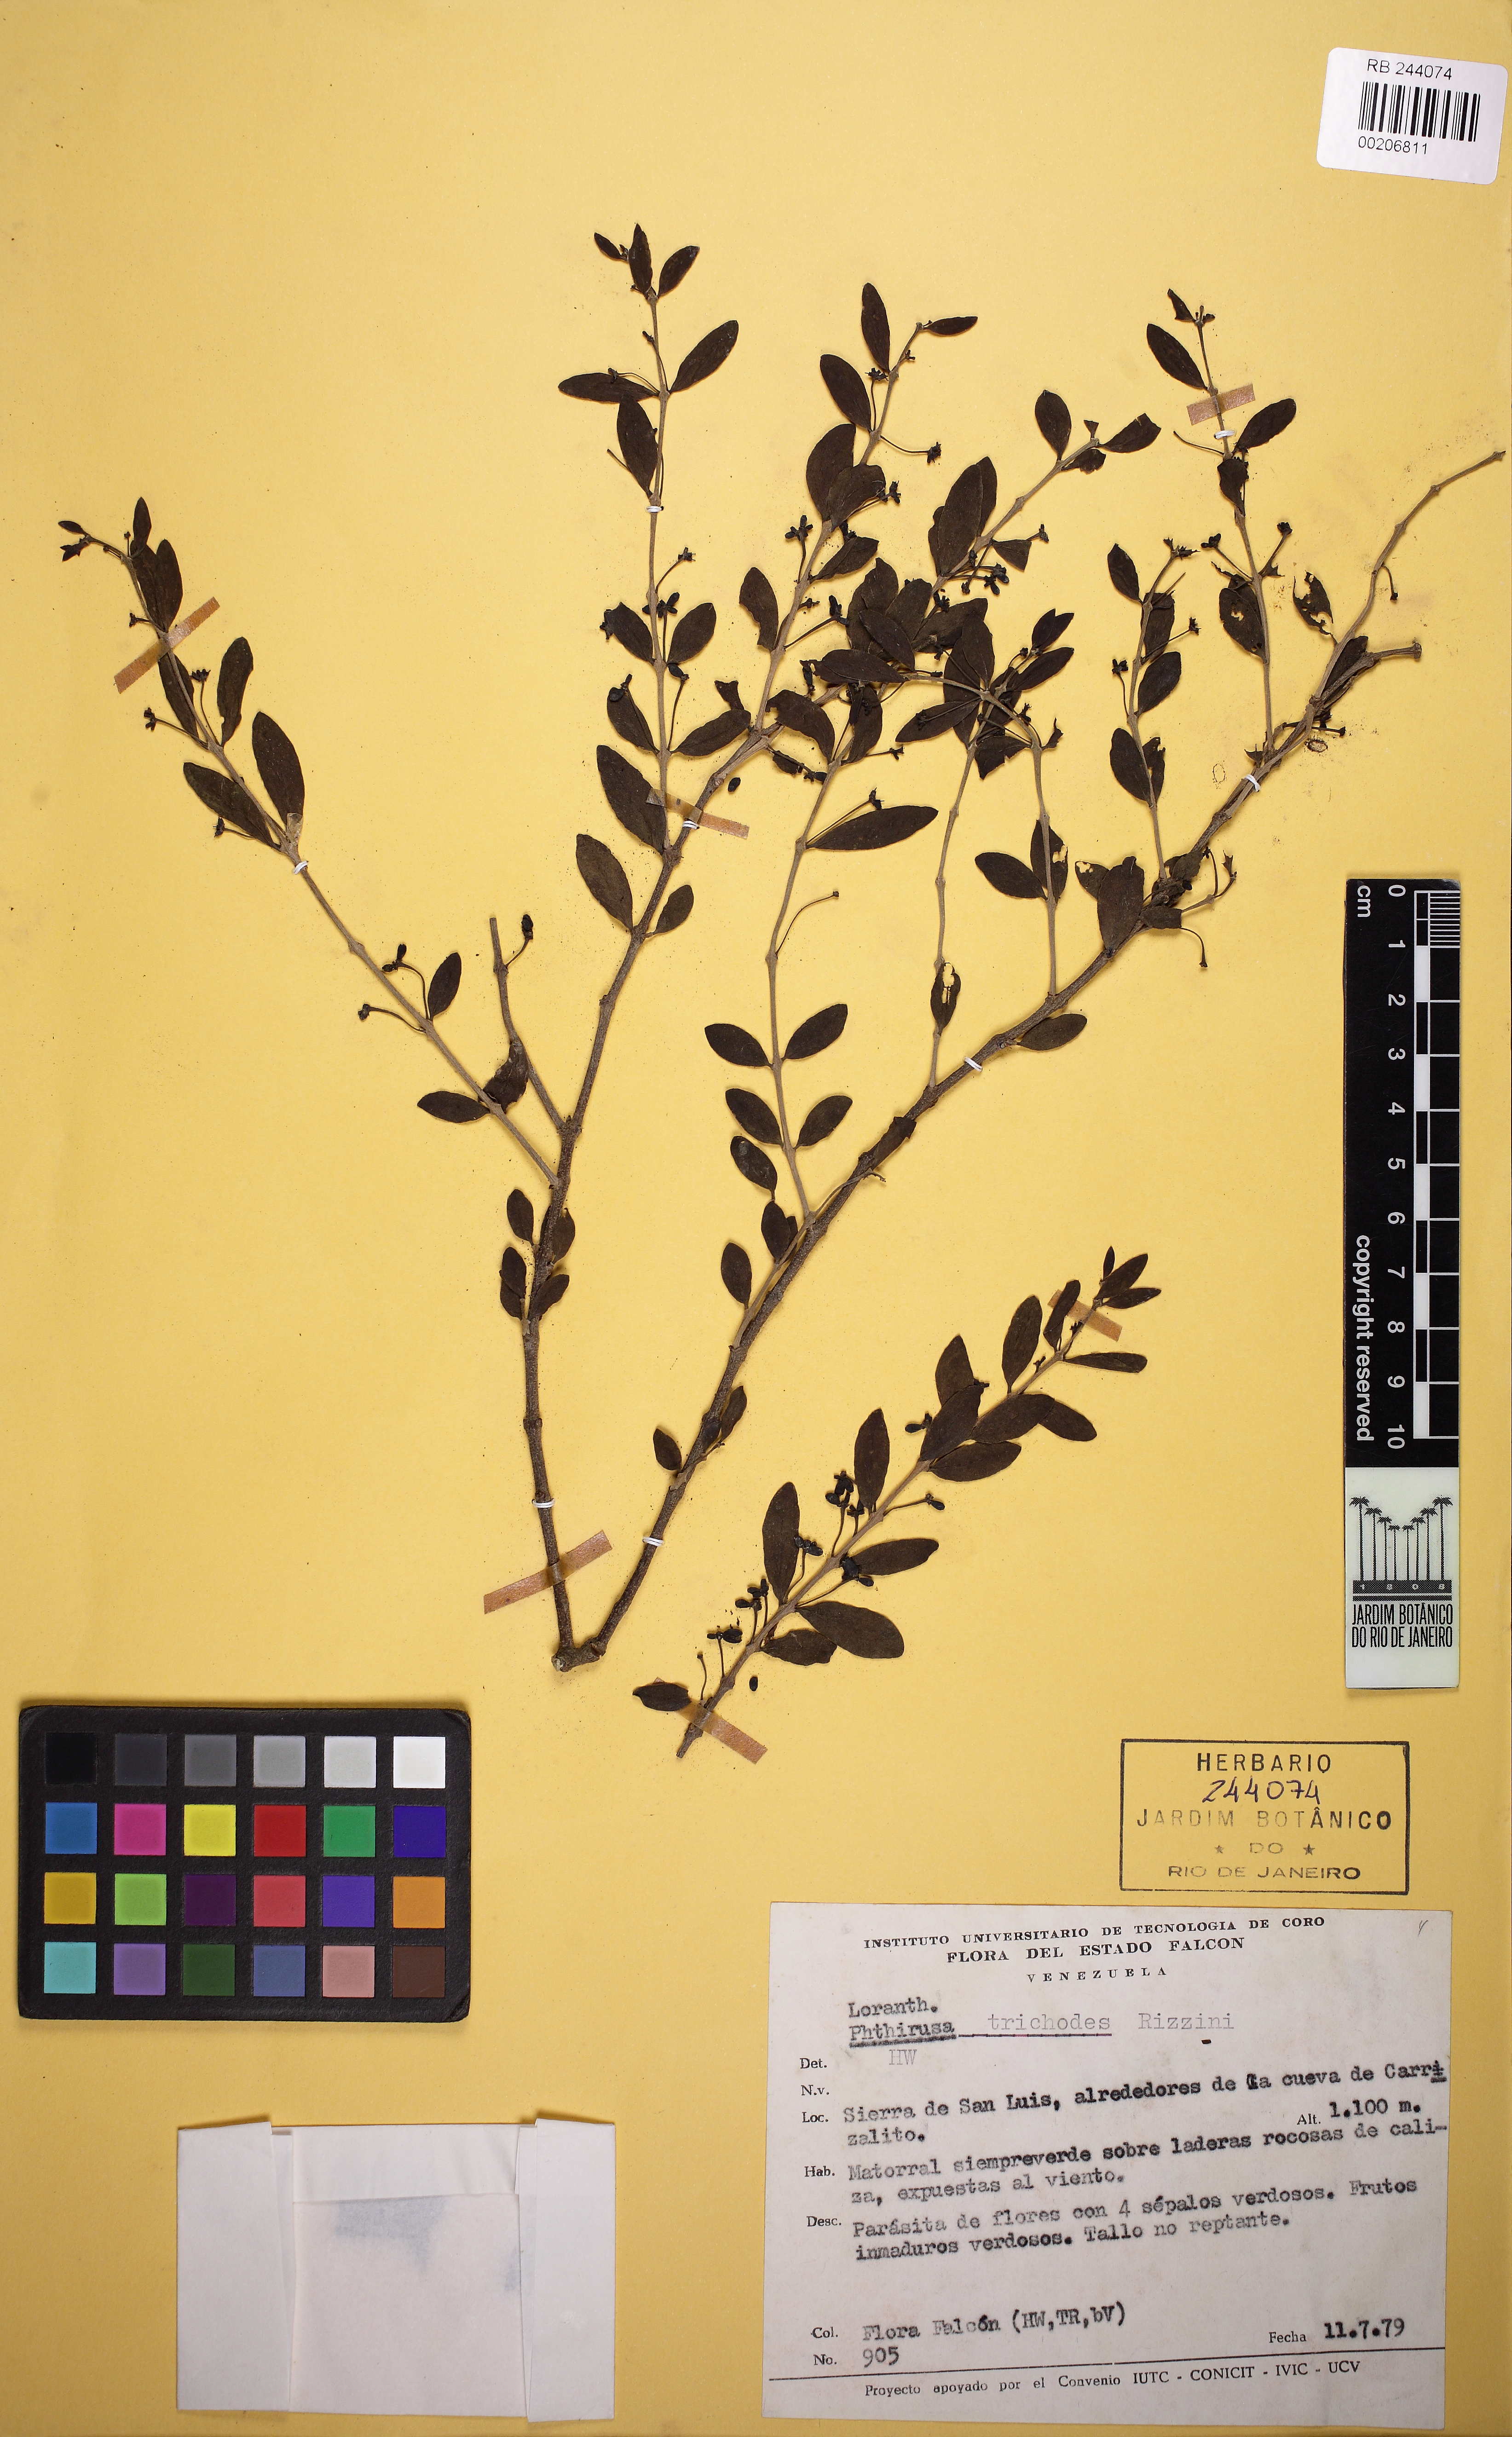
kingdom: Plantae
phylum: Tracheophyta
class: Magnoliopsida
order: Santalales
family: Loranthaceae
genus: Pusillanthus
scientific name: Pusillanthus pubescens
